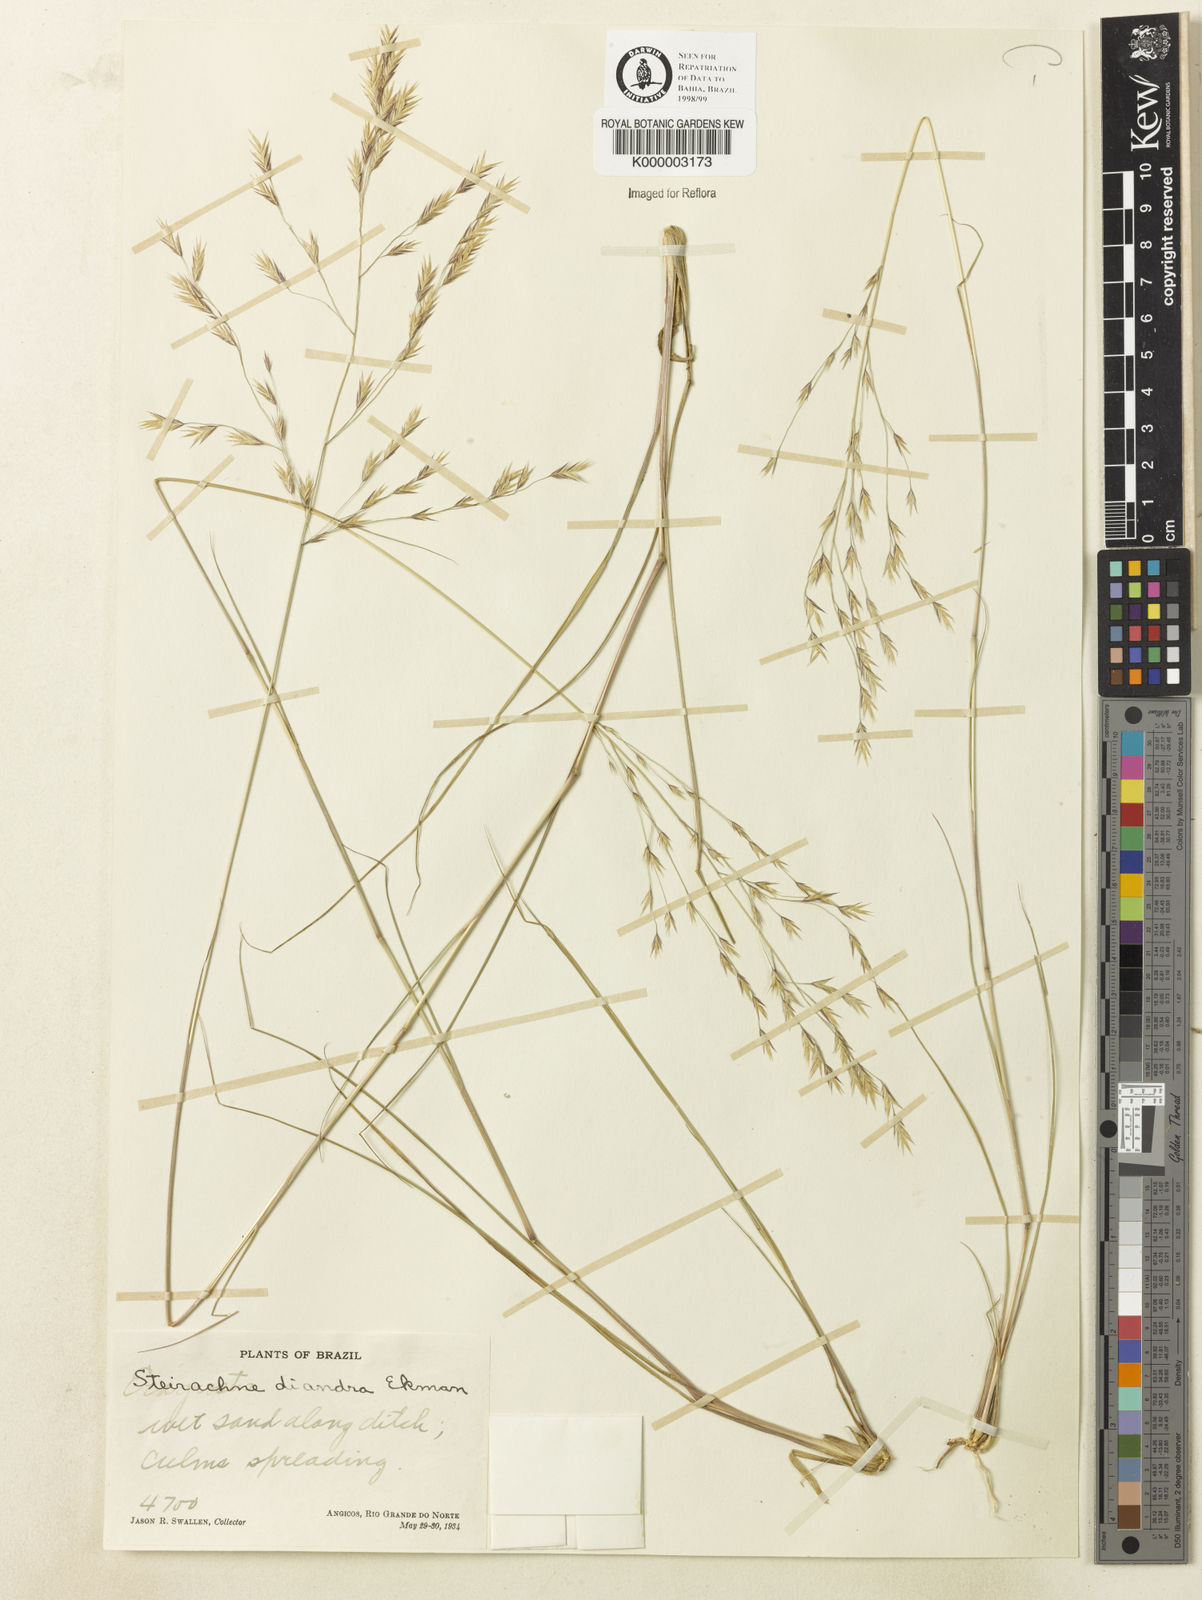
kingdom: Plantae
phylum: Tracheophyta
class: Liliopsida
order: Poales
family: Poaceae
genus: Steirachne
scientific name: Steirachne diandra
